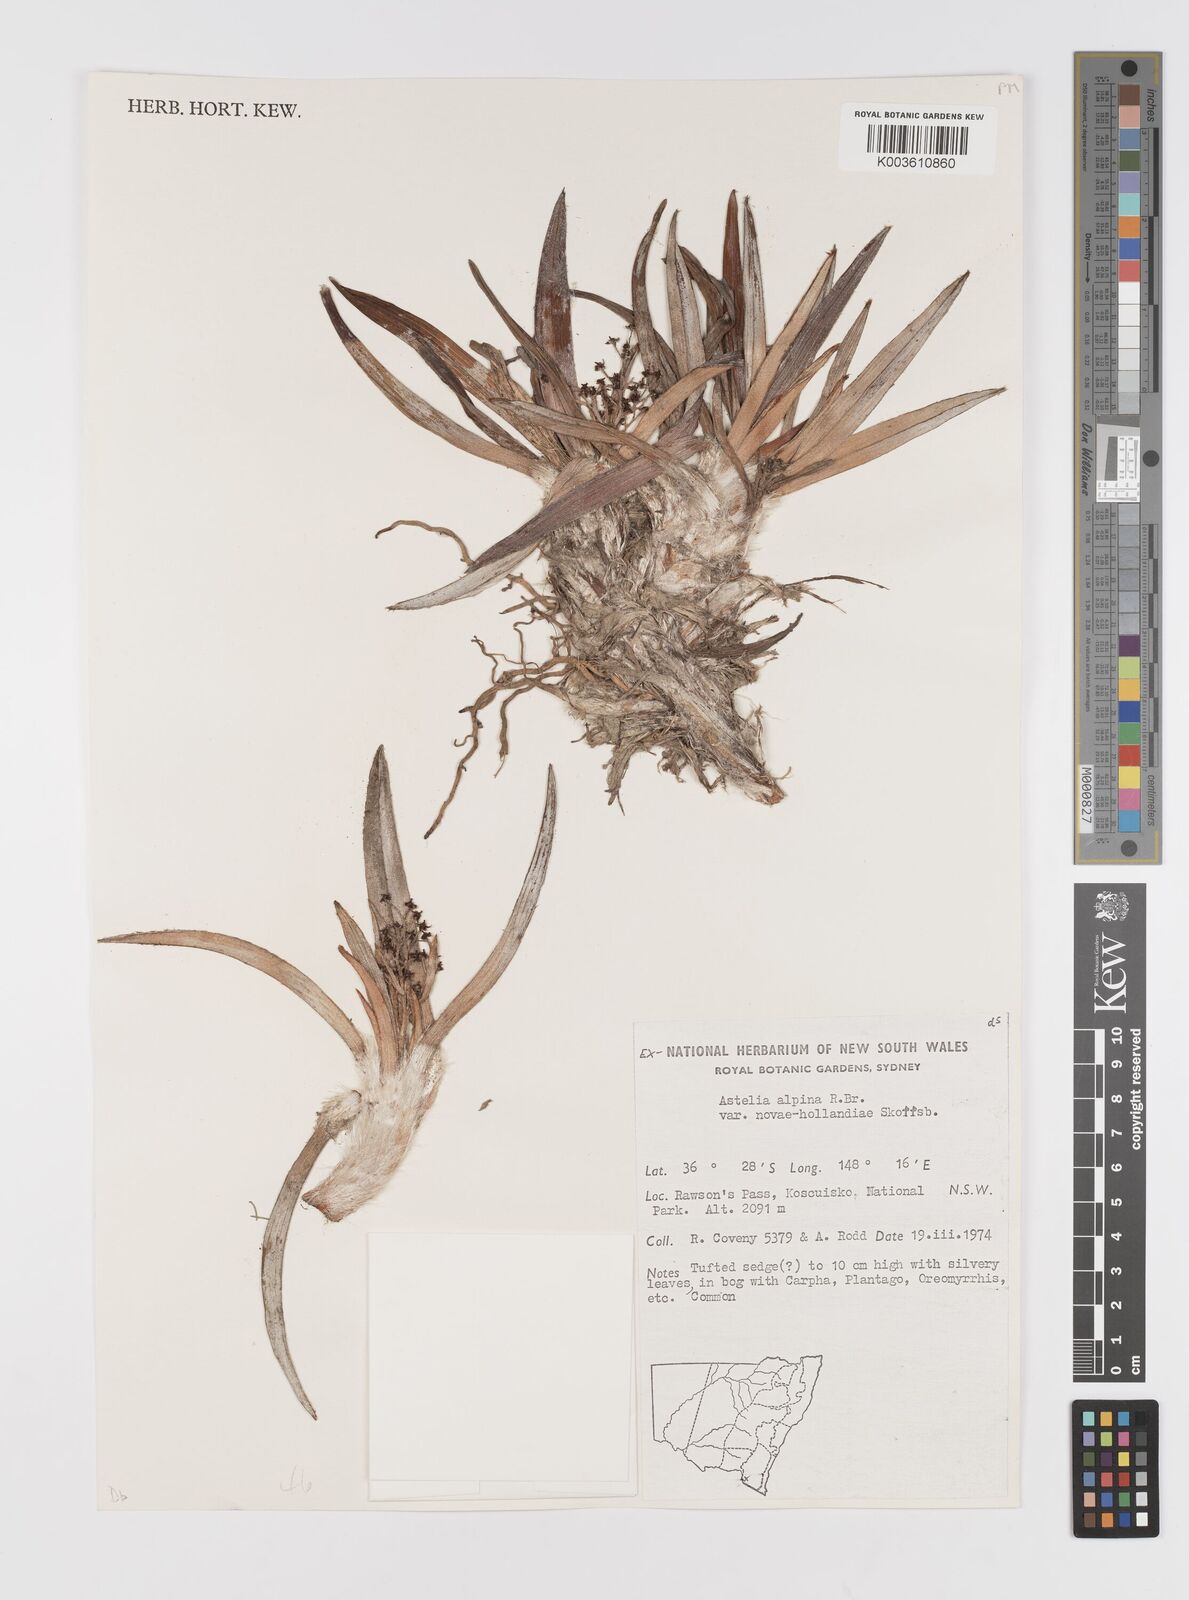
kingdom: Plantae
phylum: Tracheophyta
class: Liliopsida
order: Asparagales
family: Asteliaceae
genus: Astelia
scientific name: Astelia alpina
